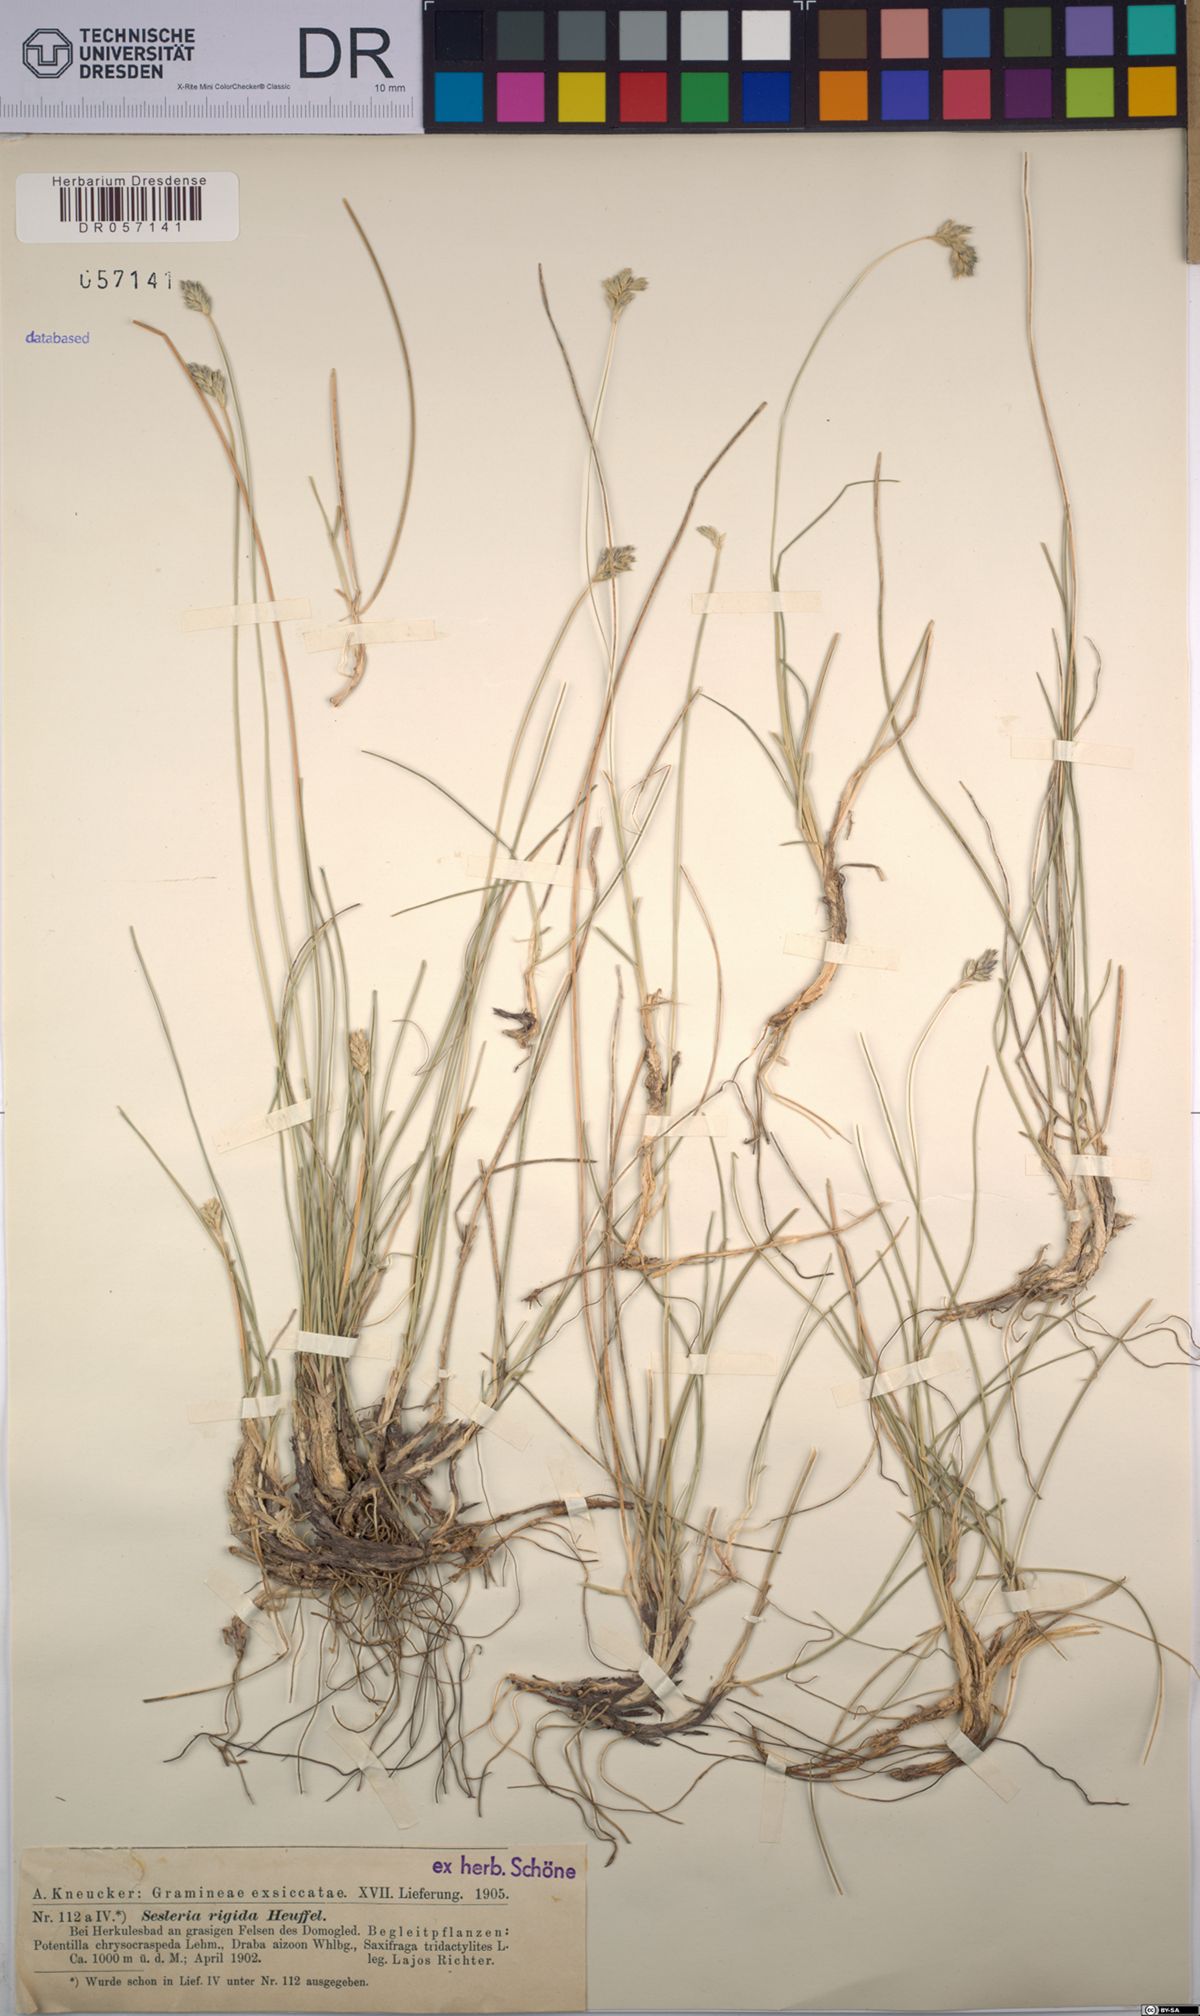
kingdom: Plantae
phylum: Tracheophyta
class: Liliopsida
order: Poales
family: Poaceae
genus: Sesleria
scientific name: Sesleria rigida
